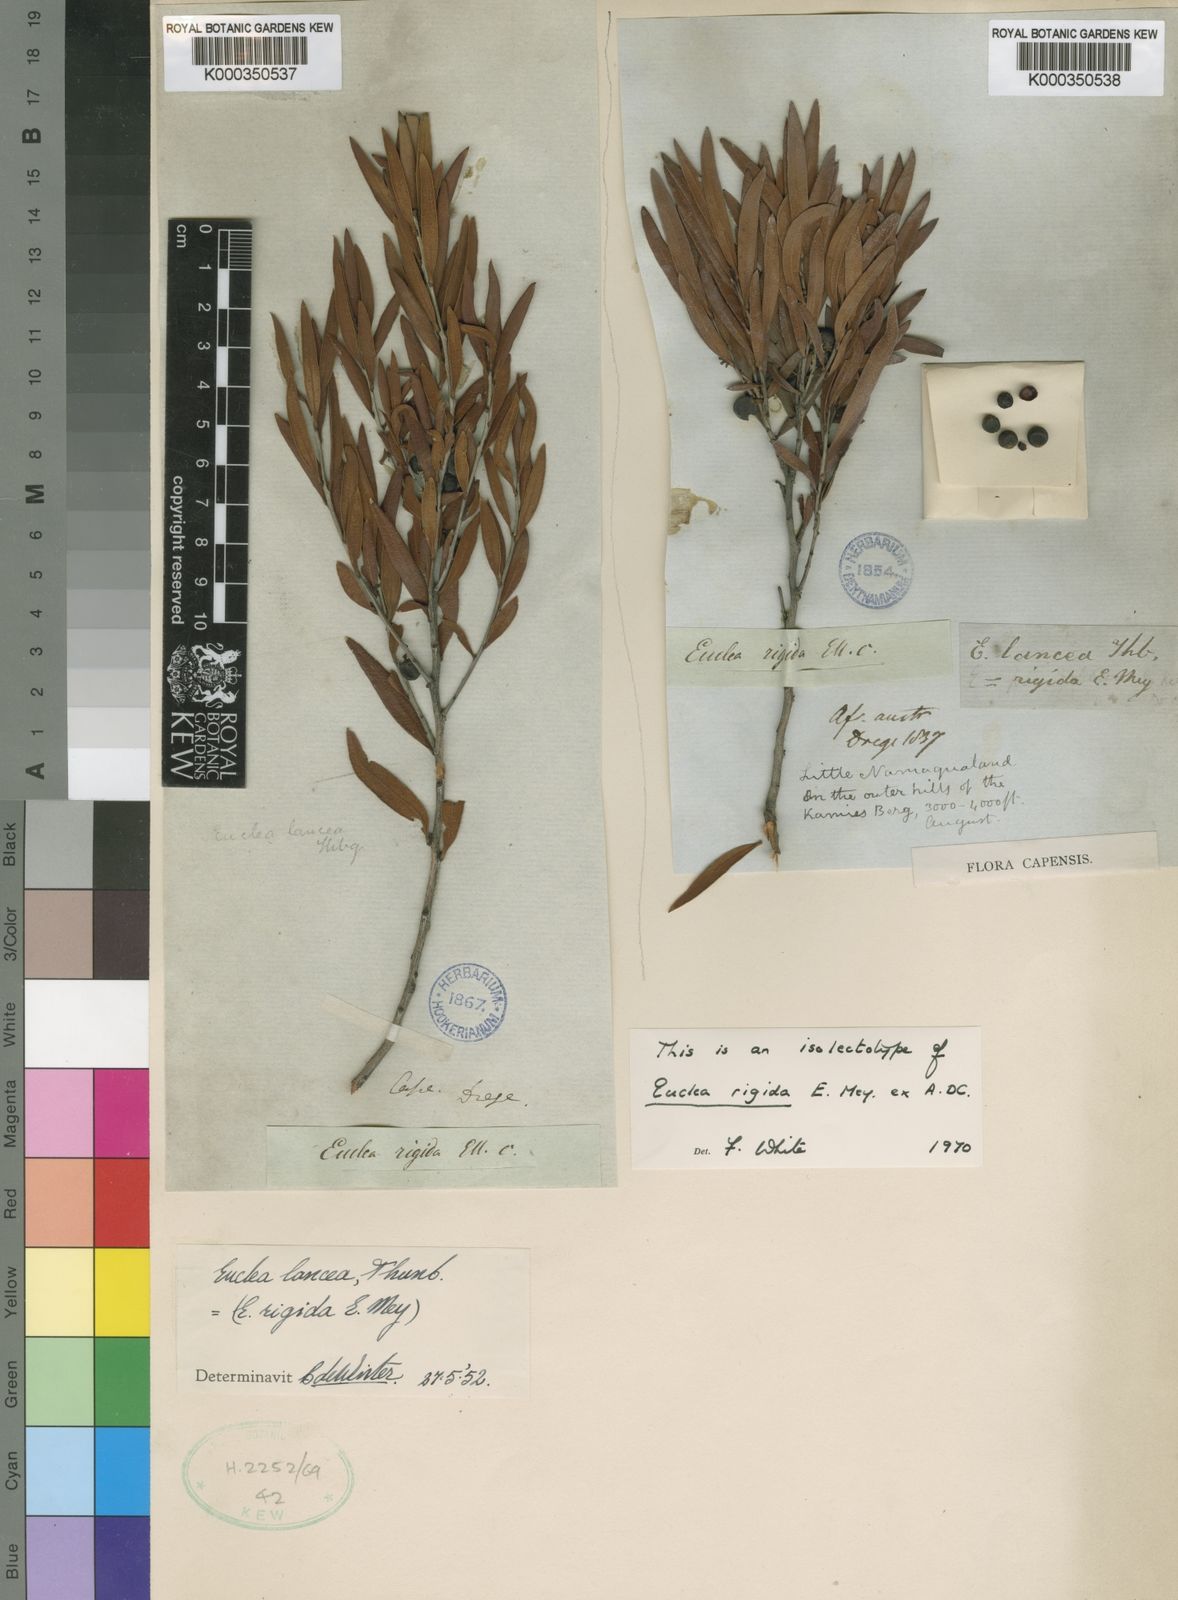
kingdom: Plantae
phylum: Tracheophyta
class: Magnoliopsida
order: Ericales
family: Ebenaceae
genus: Euclea
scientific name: Euclea lancea
